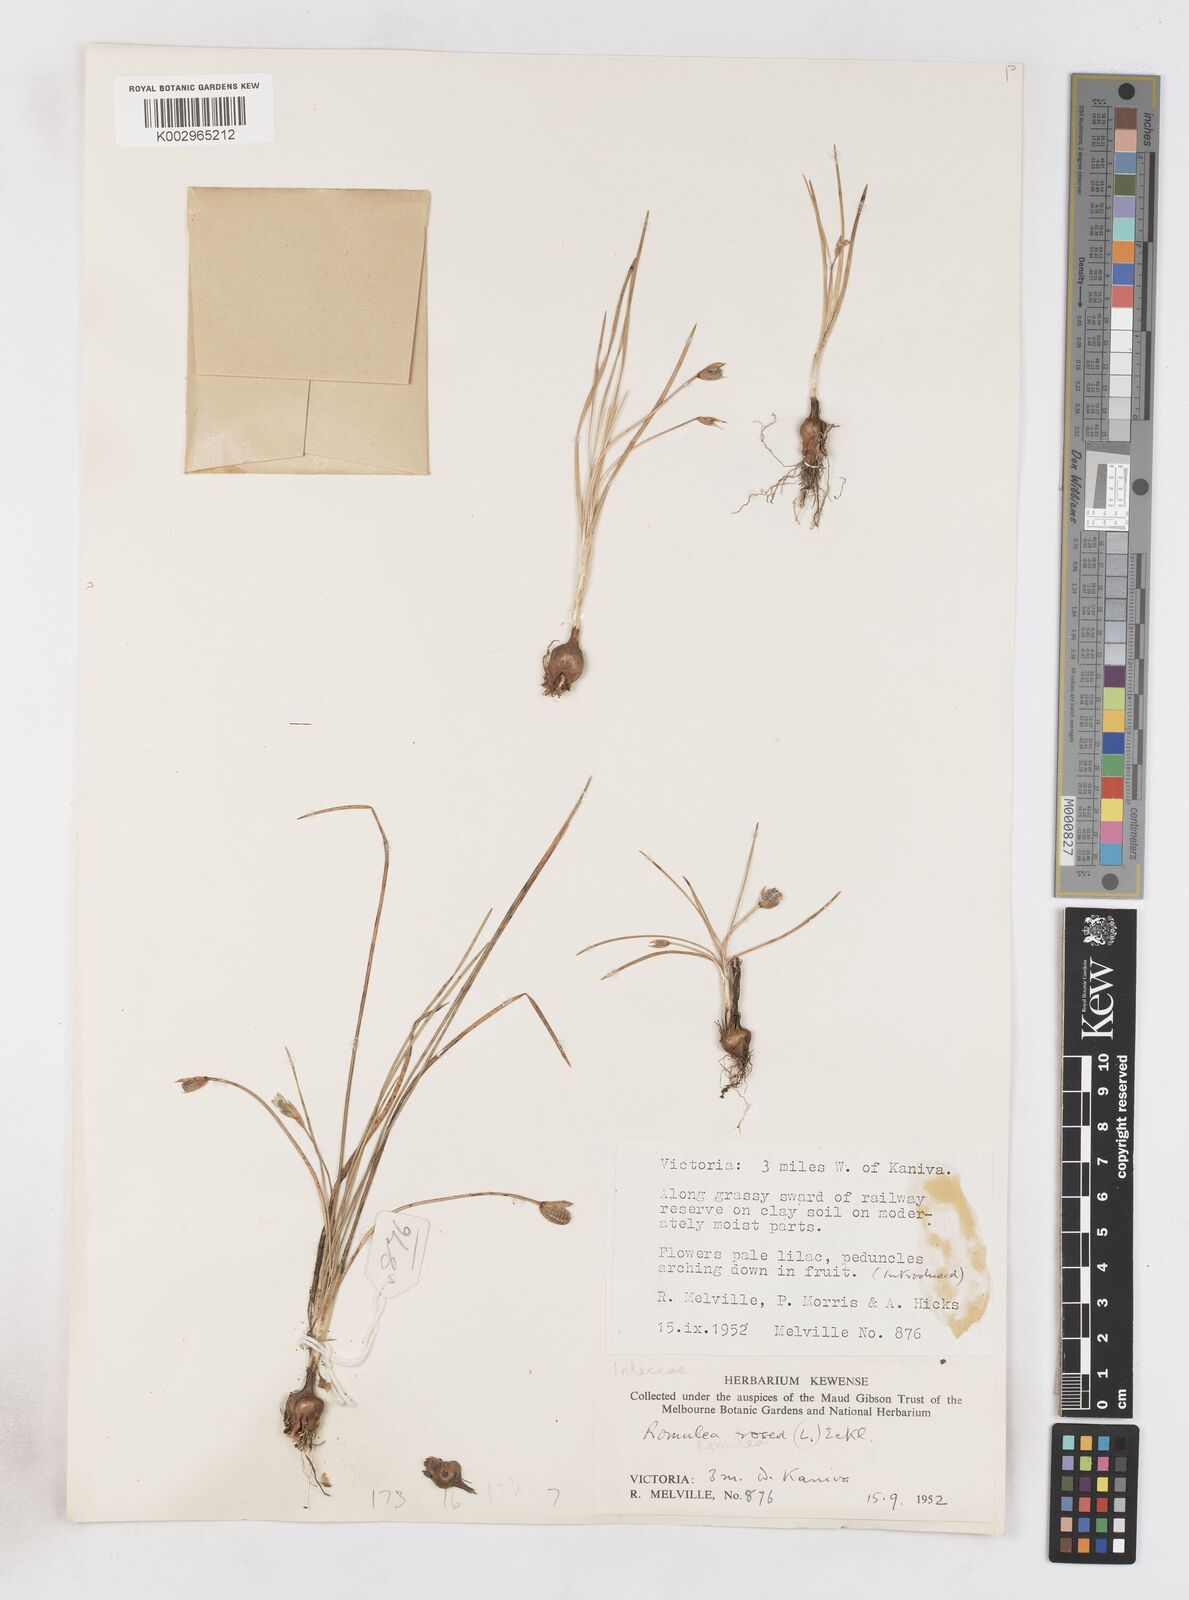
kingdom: Plantae
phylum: Tracheophyta
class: Liliopsida
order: Asparagales
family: Iridaceae
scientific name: Iridaceae
